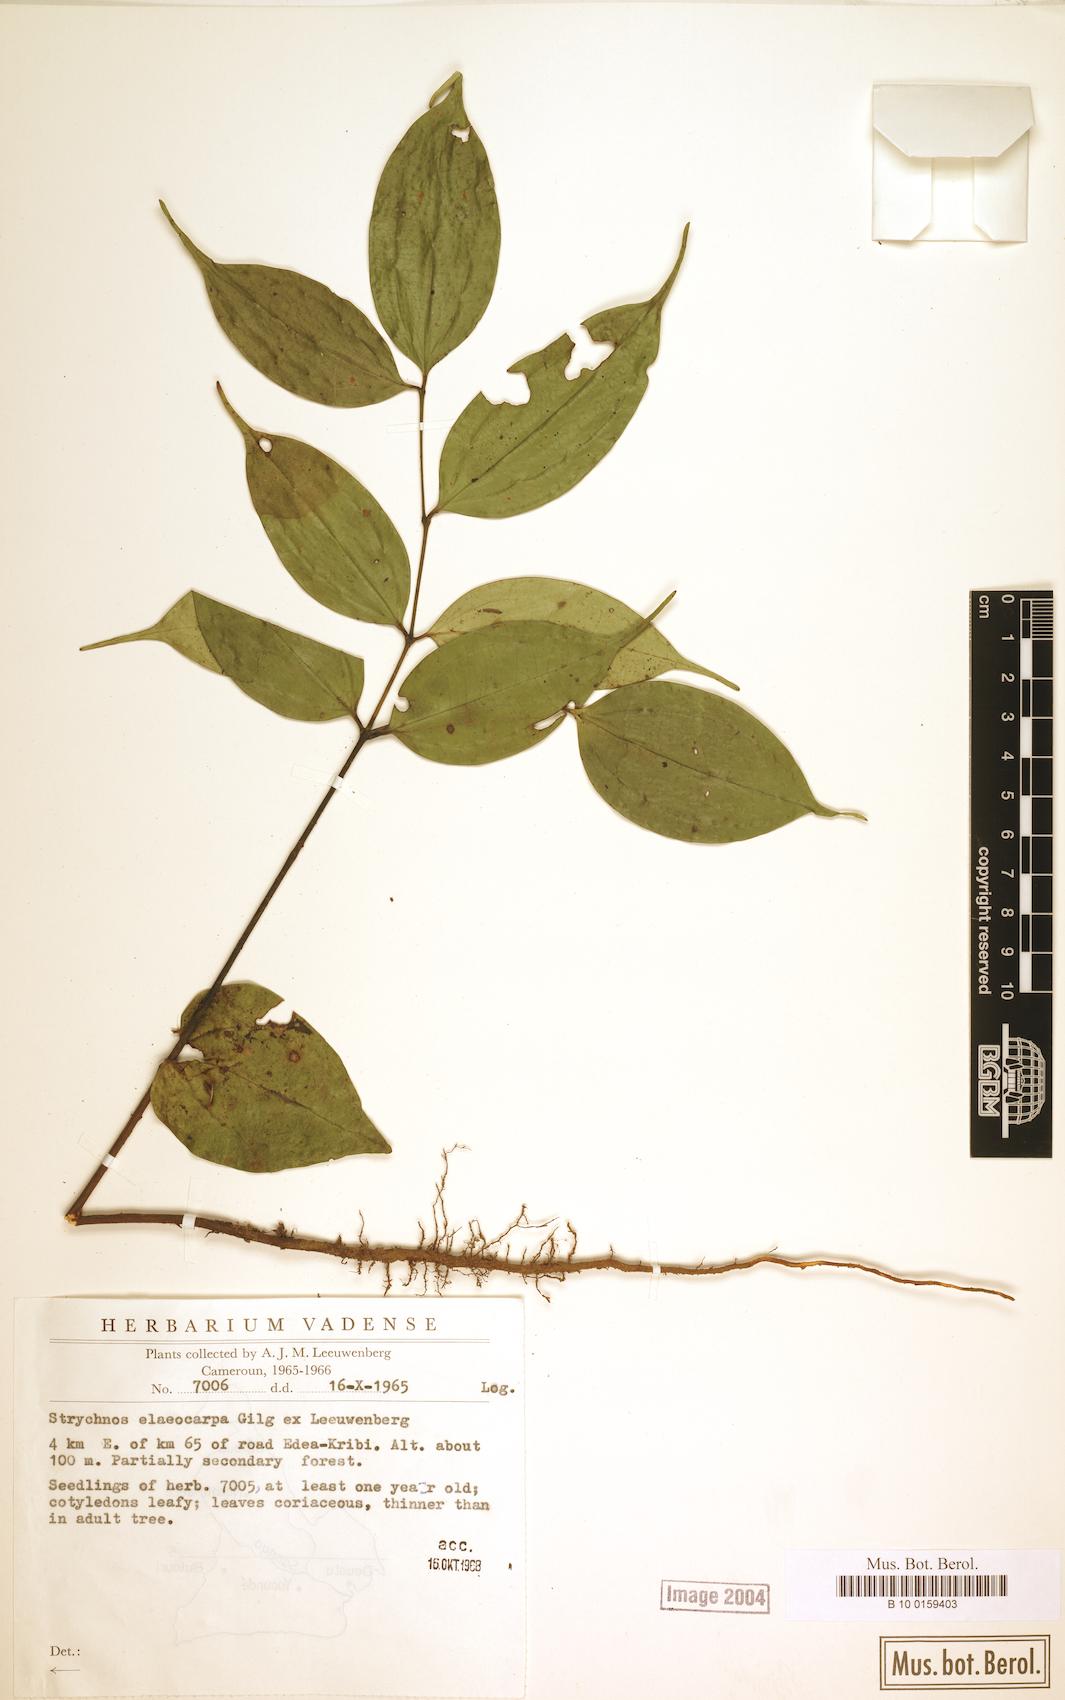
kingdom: Plantae
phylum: Tracheophyta
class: Magnoliopsida
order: Gentianales
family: Loganiaceae
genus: Strychnos
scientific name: Strychnos elaeocarpa
